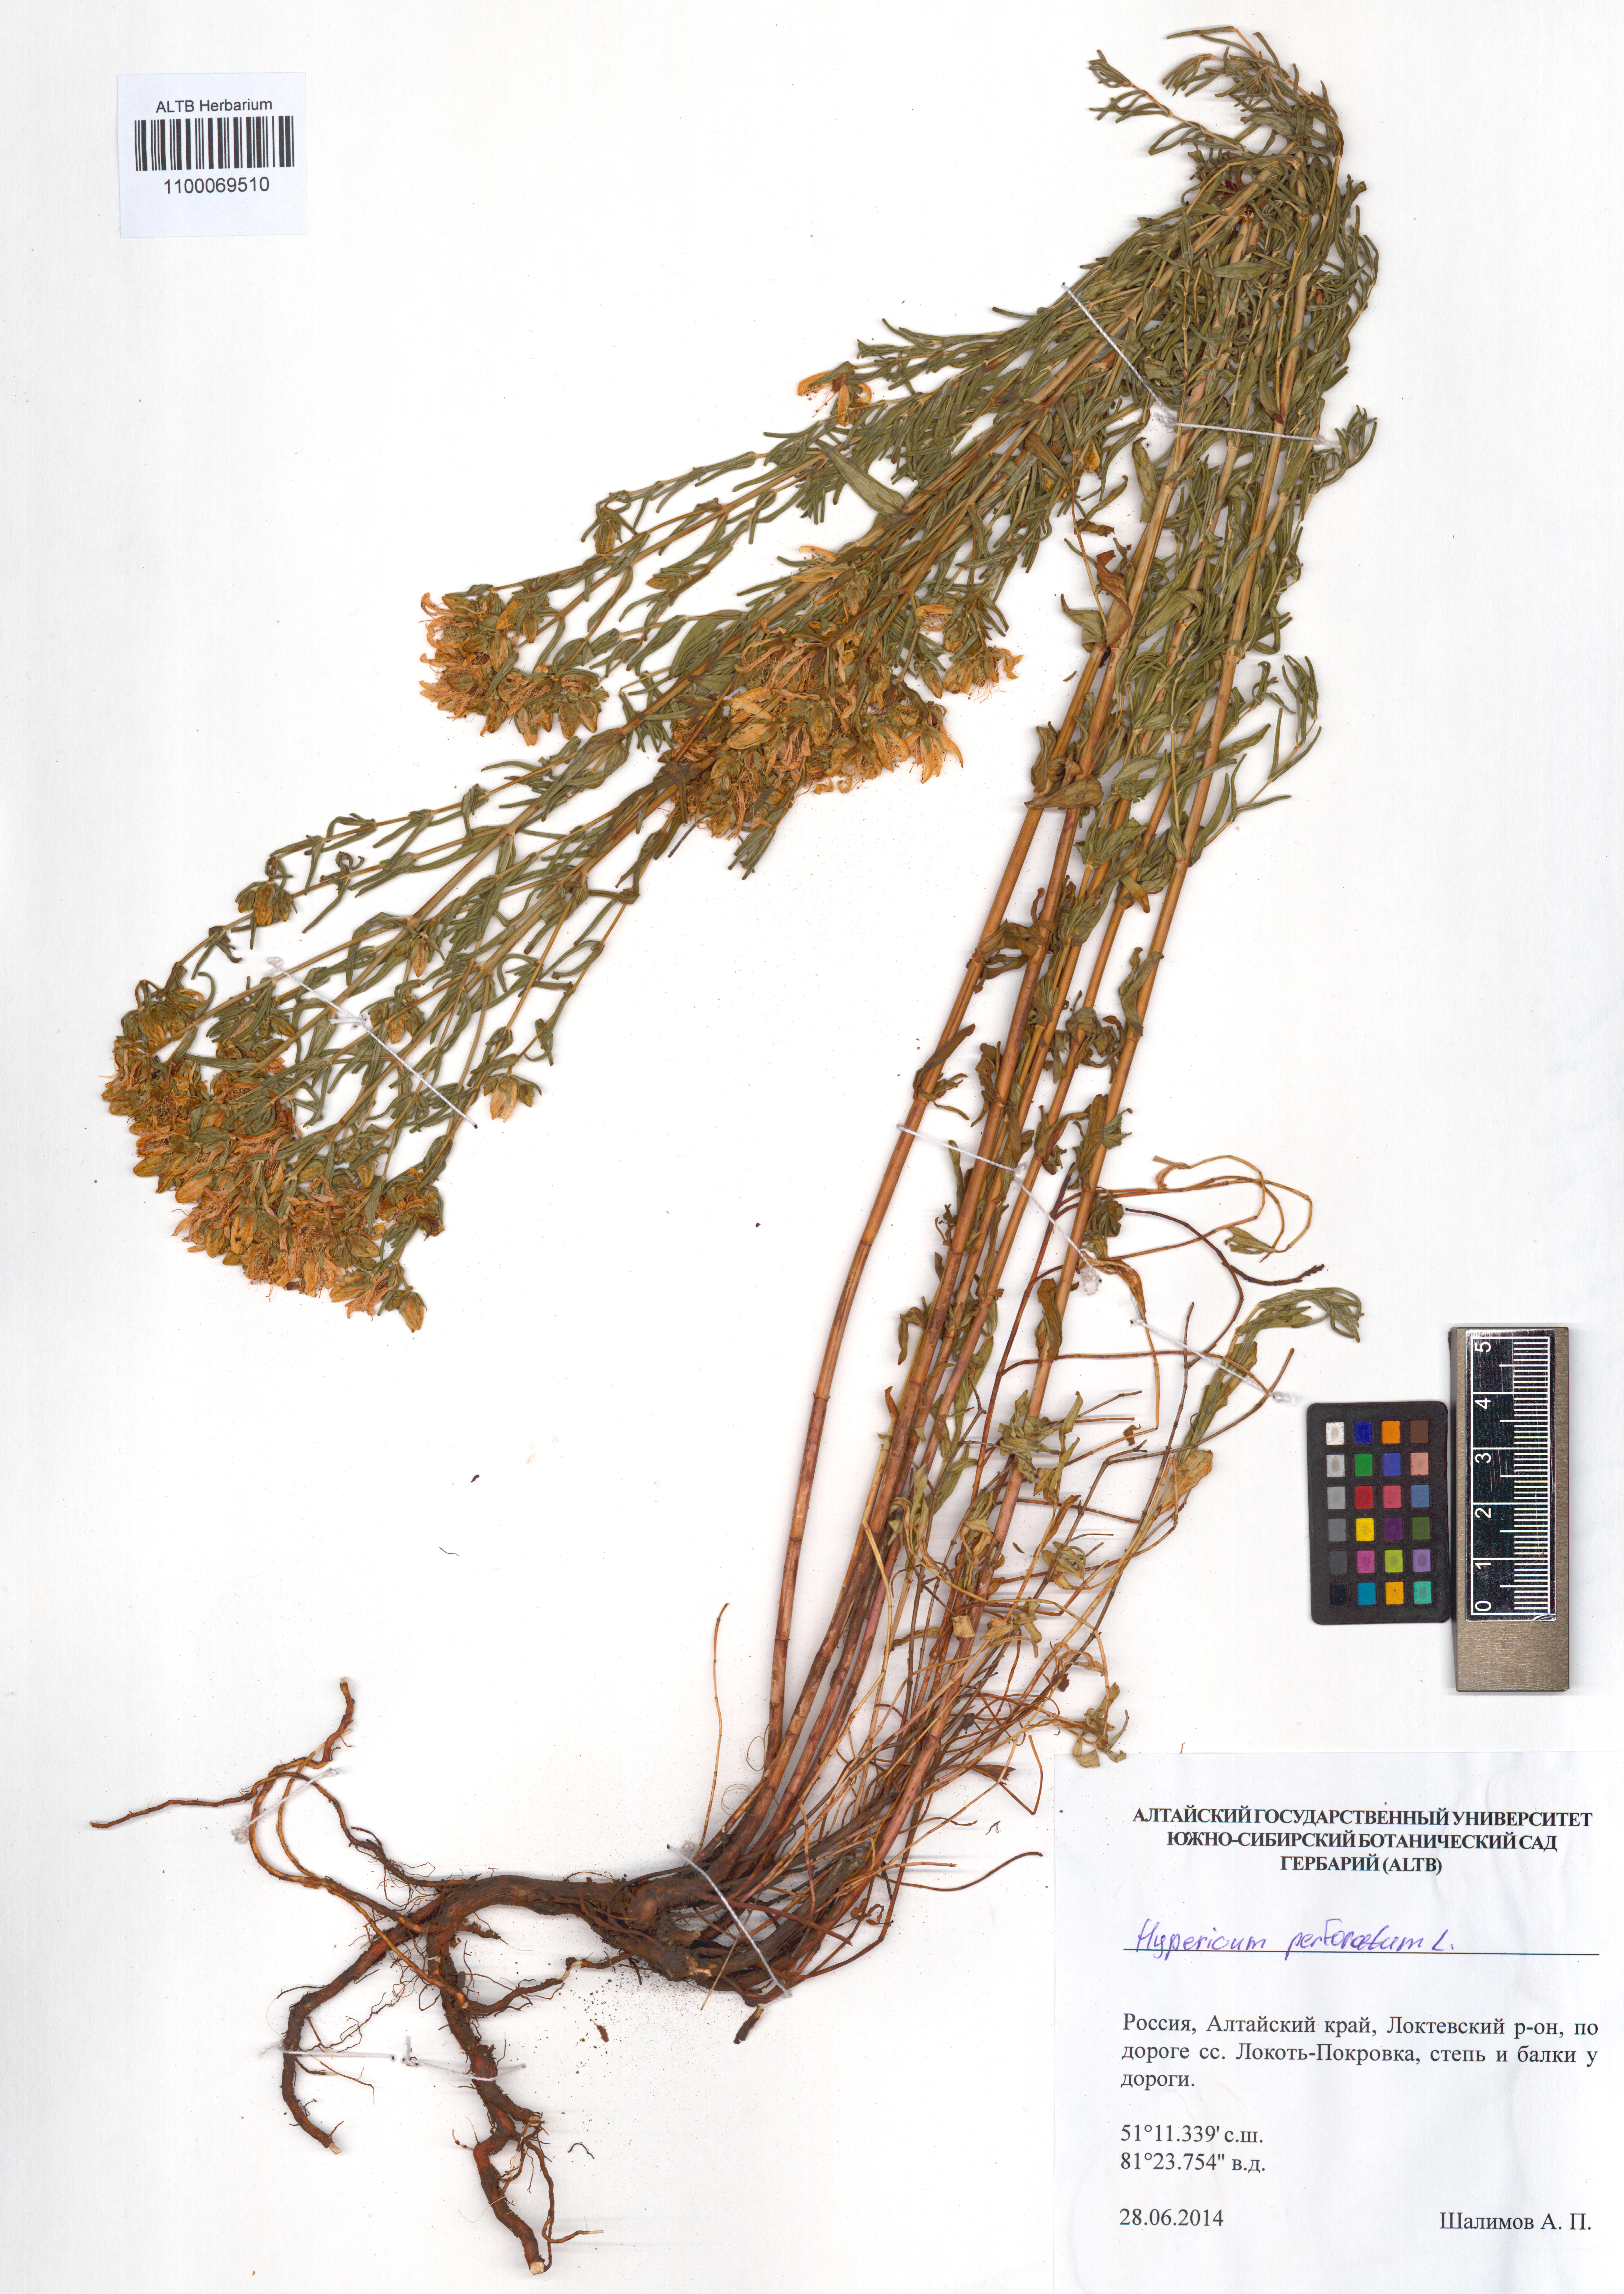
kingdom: Plantae
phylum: Tracheophyta
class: Magnoliopsida
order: Malpighiales
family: Hypericaceae
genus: Hypericum
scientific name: Hypericum perforatum
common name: Common st. johnswort
